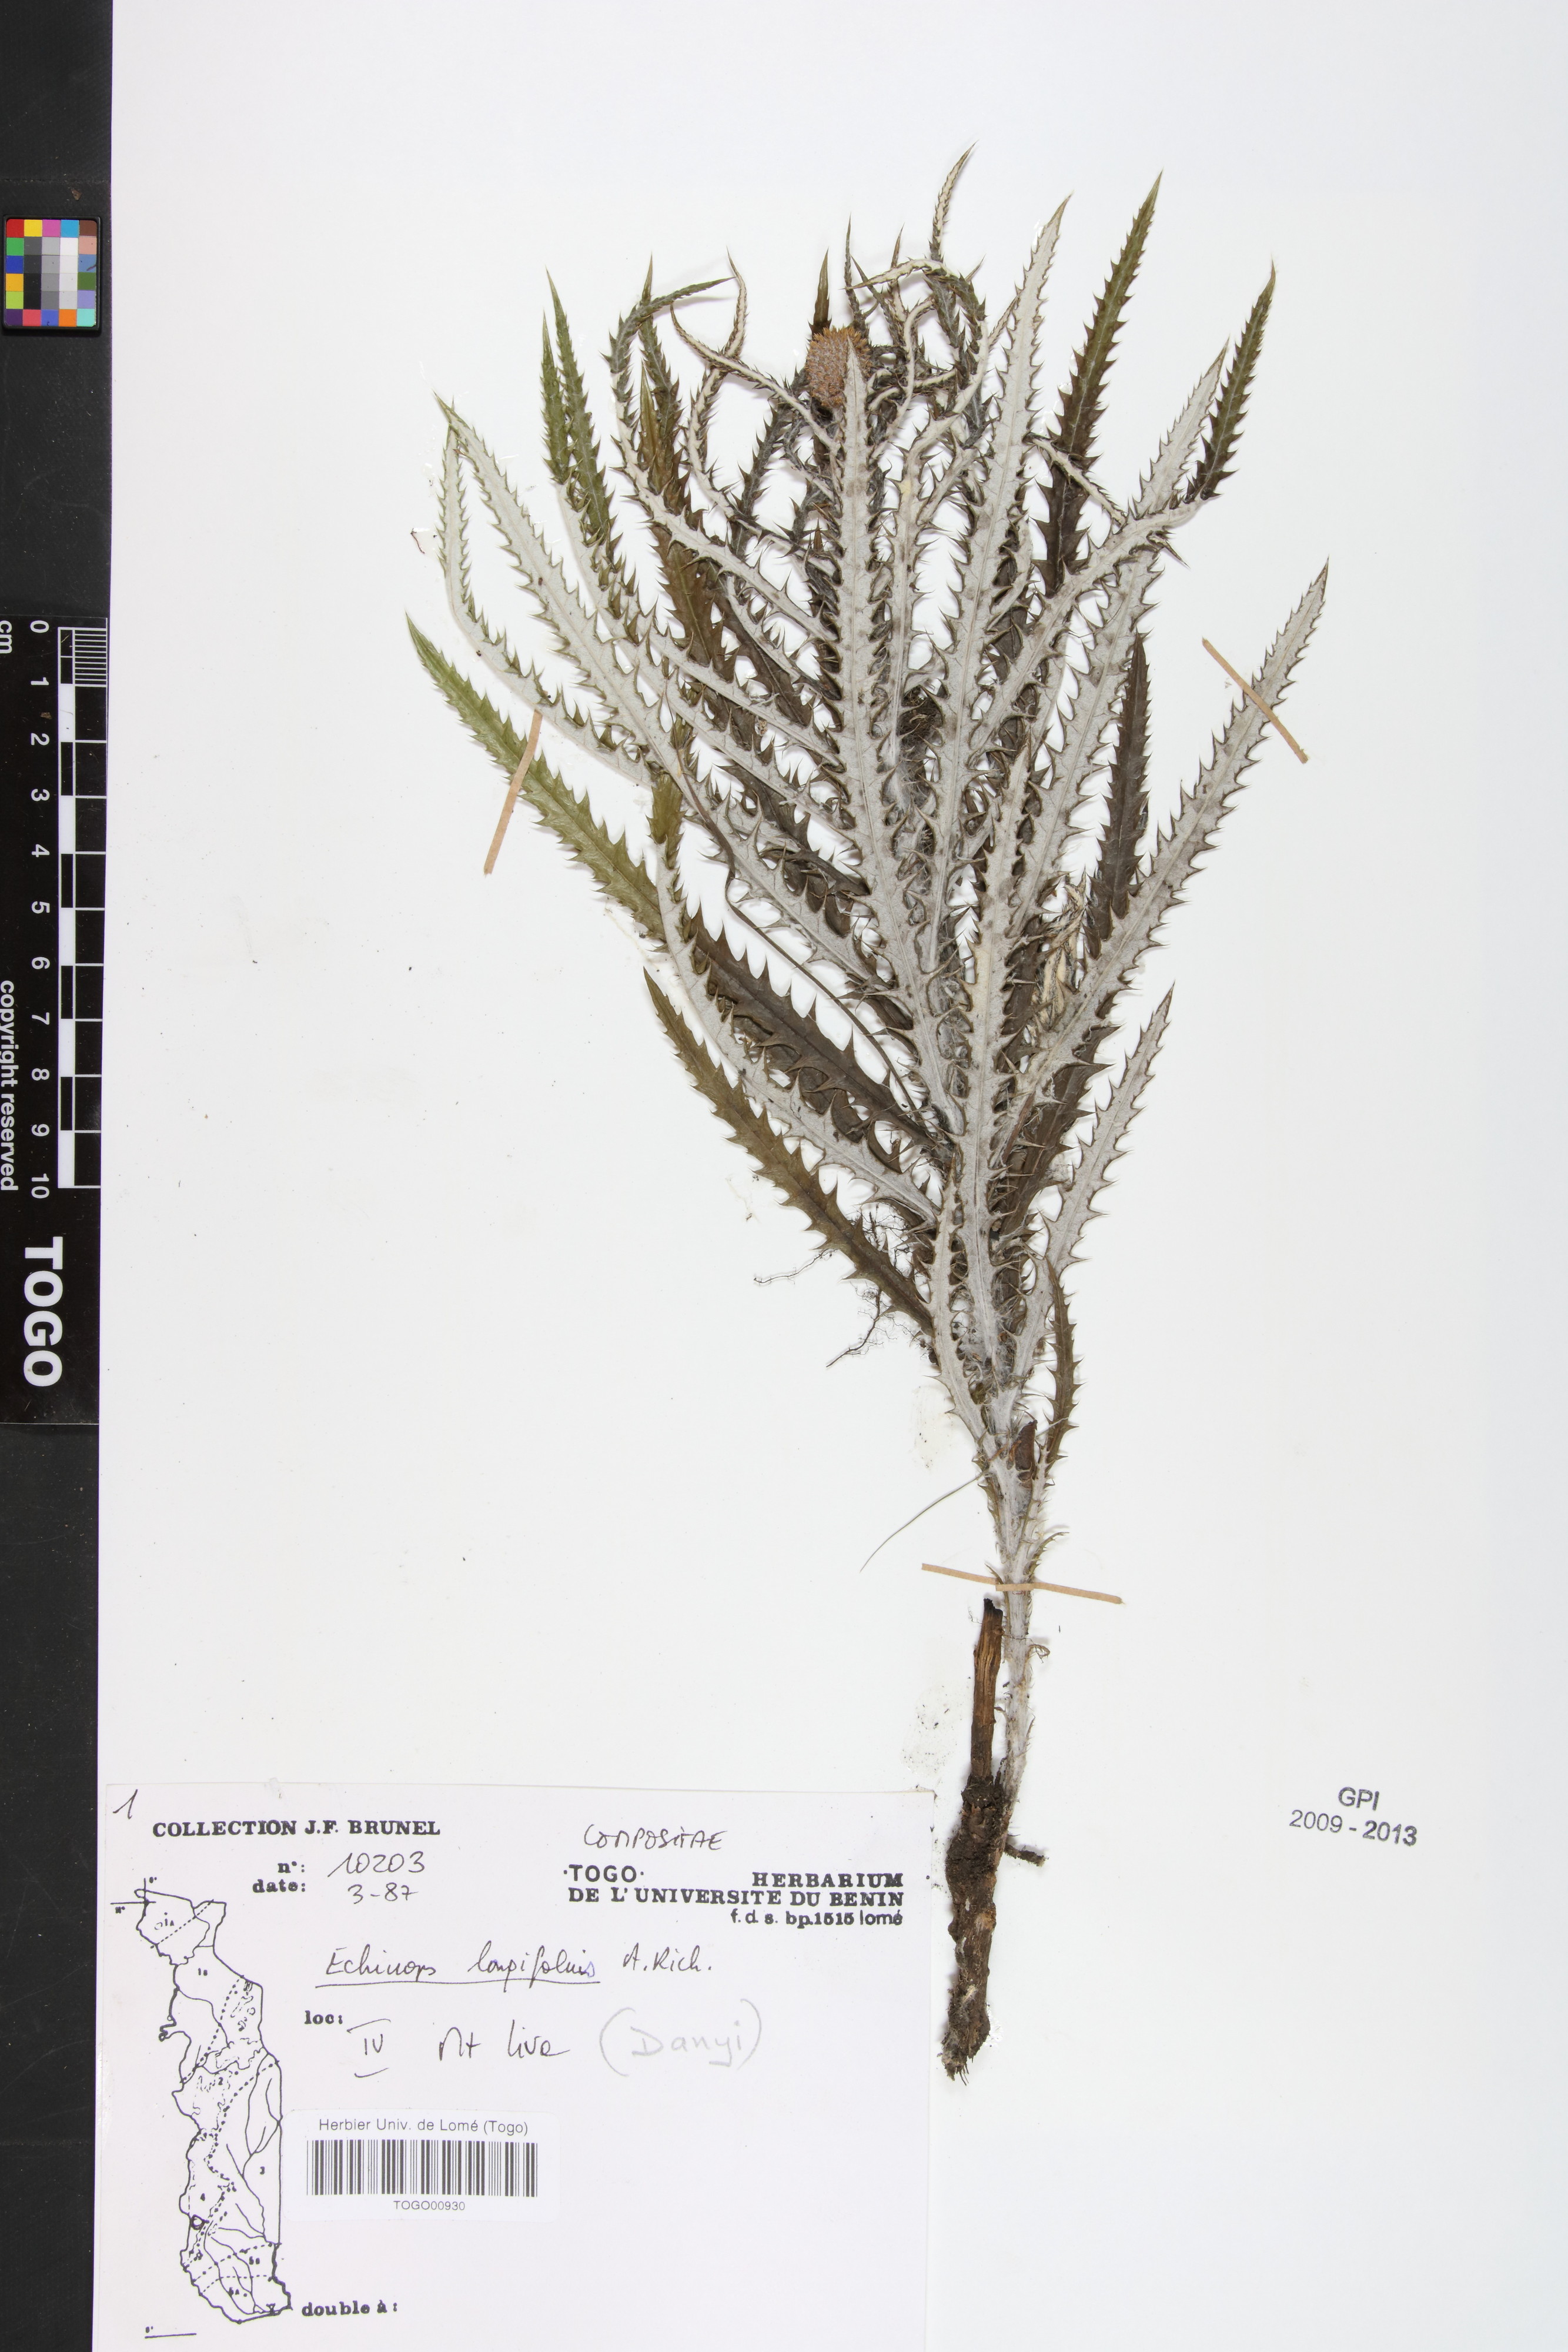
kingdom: Plantae
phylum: Tracheophyta
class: Magnoliopsida
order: Asterales
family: Asteraceae
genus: Echinops
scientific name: Echinops longifolius
